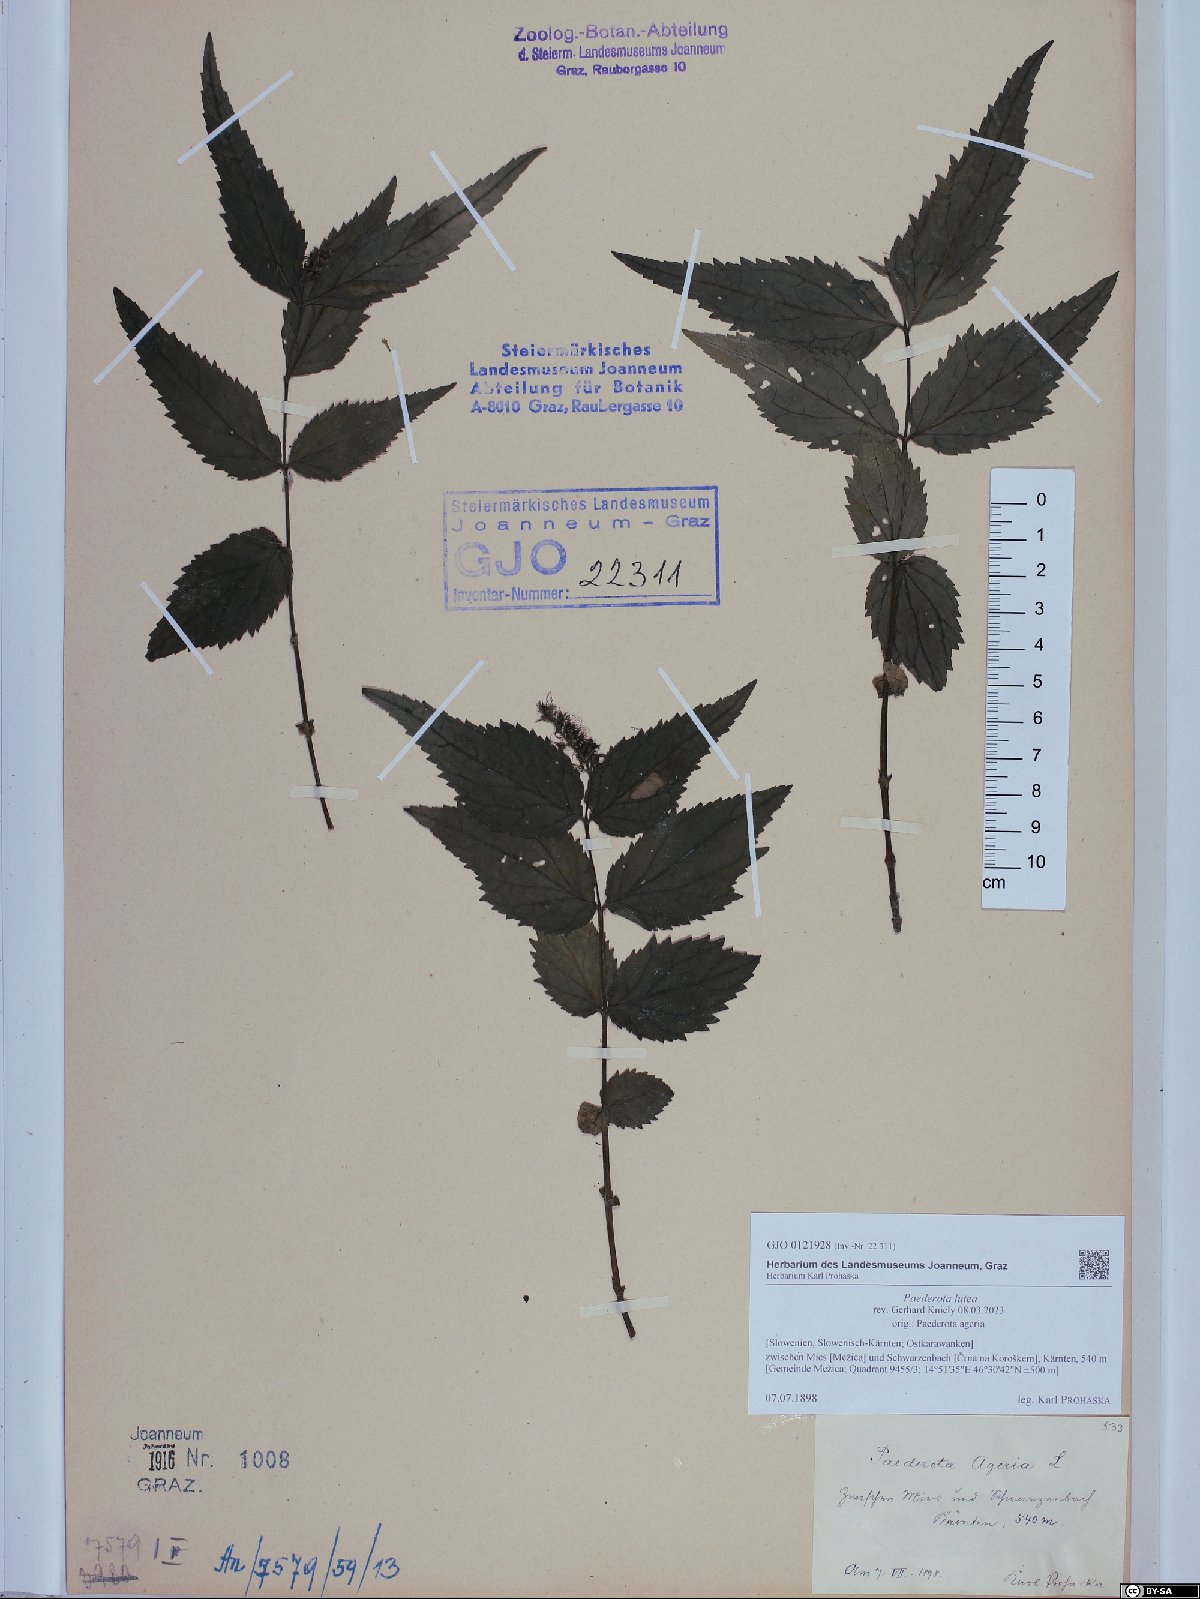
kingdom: Plantae
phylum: Tracheophyta
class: Magnoliopsida
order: Lamiales
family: Plantaginaceae
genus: Paederota
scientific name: Paederota lutea
